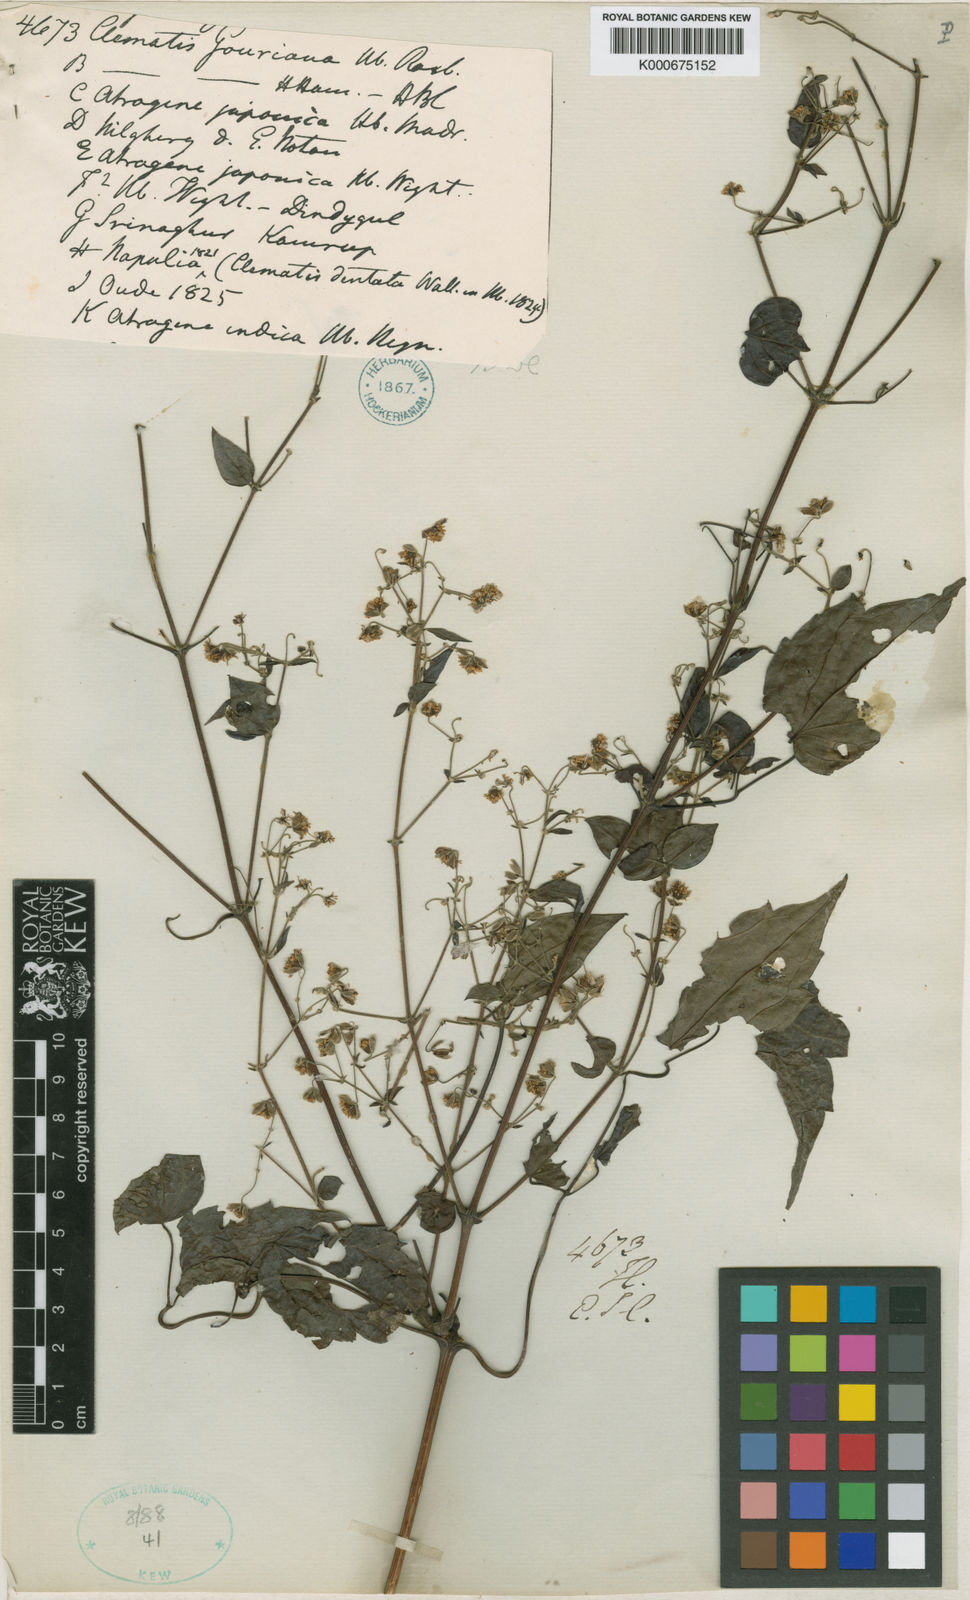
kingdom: Plantae
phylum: Tracheophyta
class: Magnoliopsida
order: Ranunculales
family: Ranunculaceae
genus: Clematis
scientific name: Clematis gouriana
